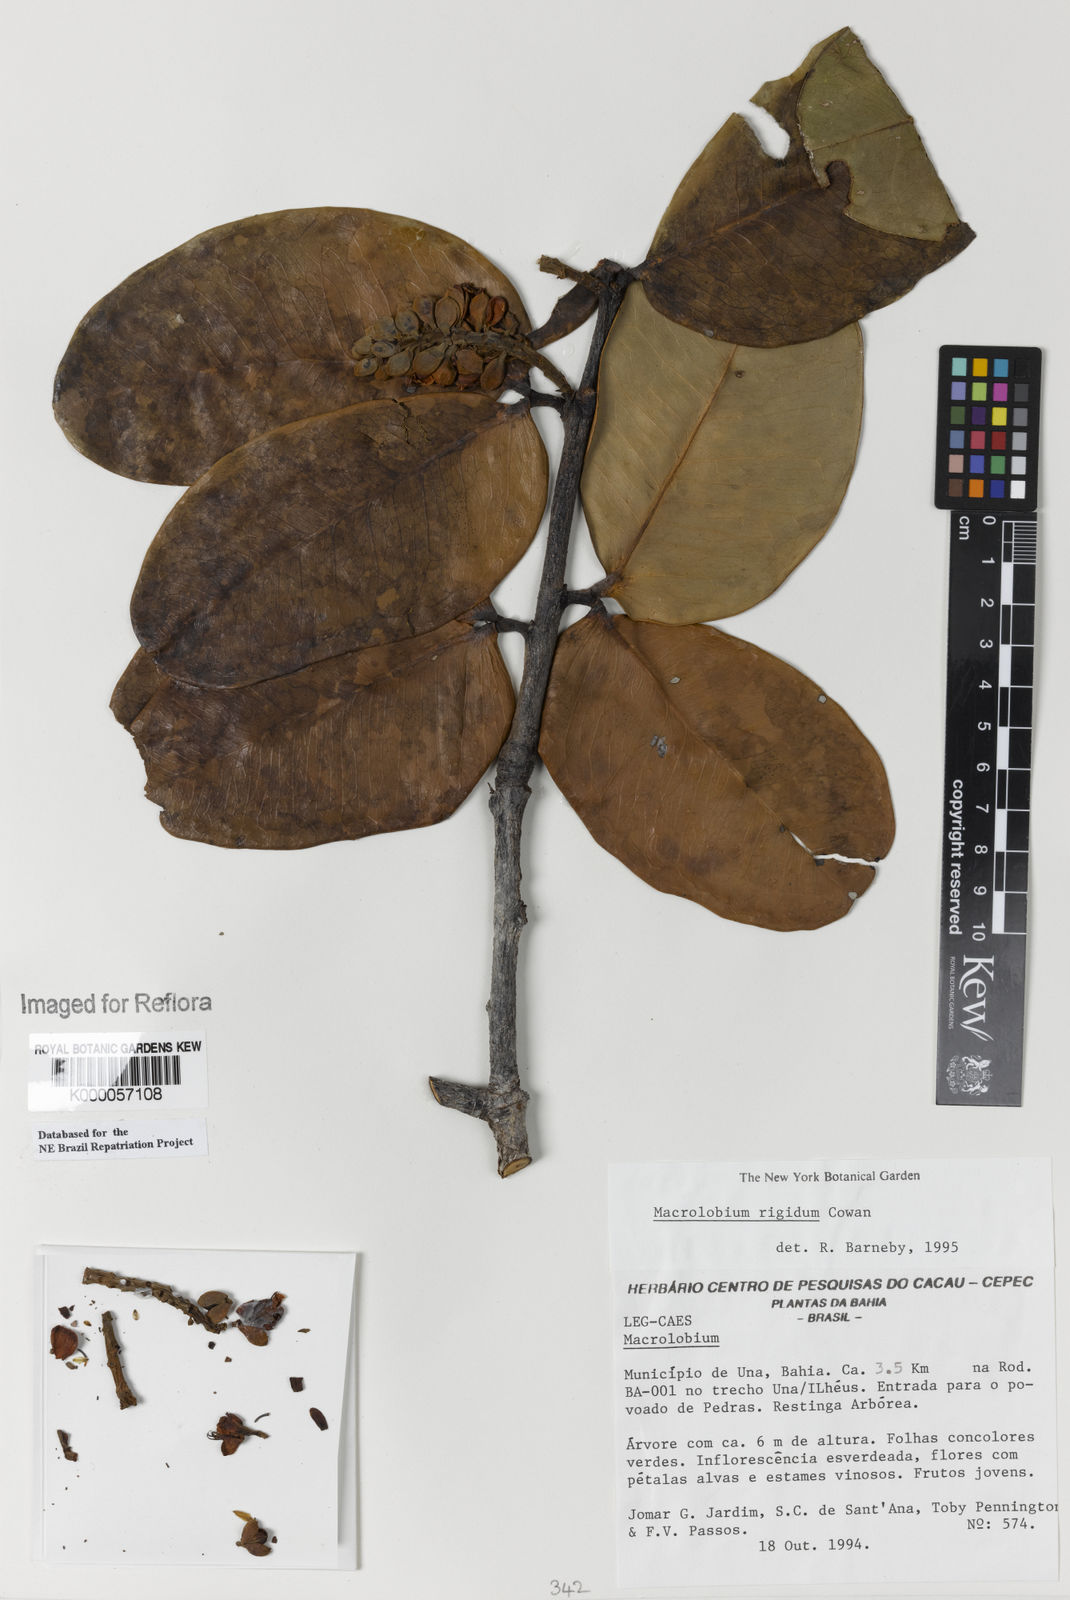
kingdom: Plantae
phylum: Tracheophyta
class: Magnoliopsida
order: Fabales
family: Fabaceae
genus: Macrolobium
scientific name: Macrolobium rigidum
